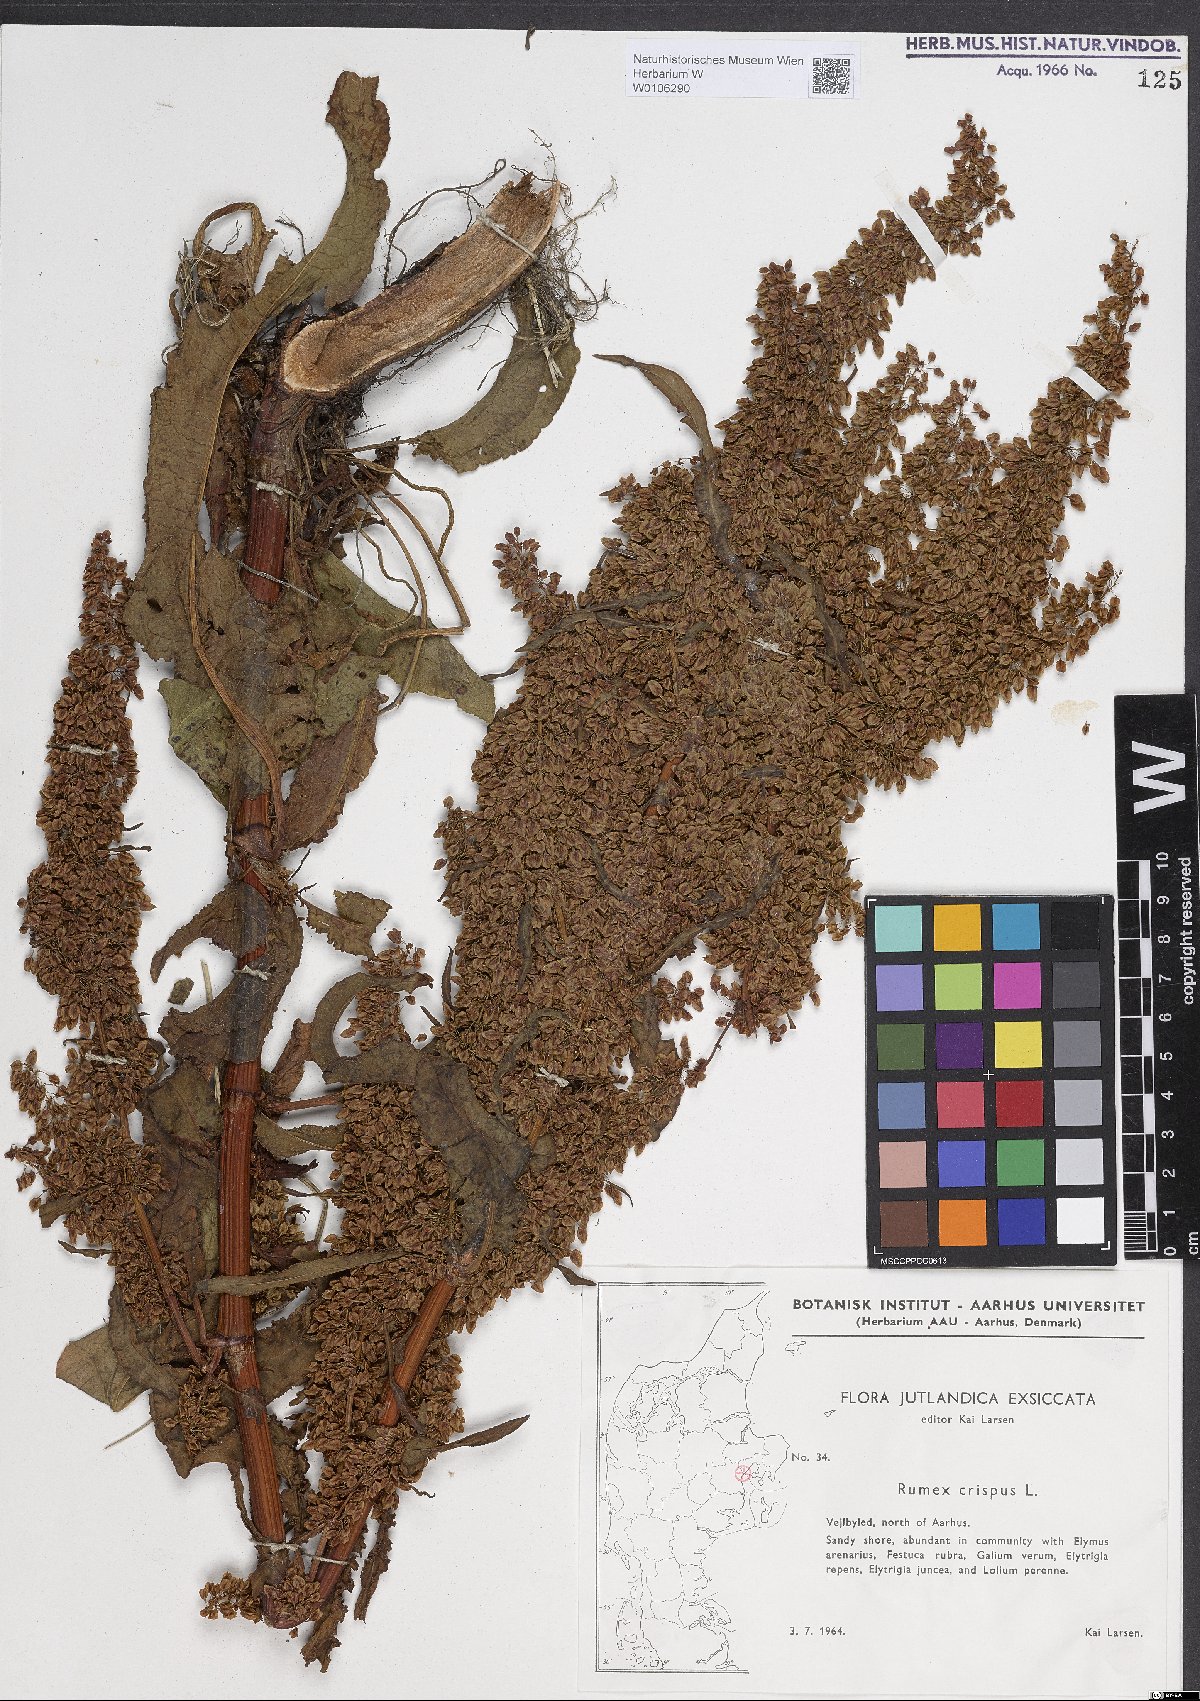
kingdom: Plantae
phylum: Tracheophyta
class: Magnoliopsida
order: Caryophyllales
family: Polygonaceae
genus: Rumex
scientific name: Rumex crispus
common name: Curled dock
